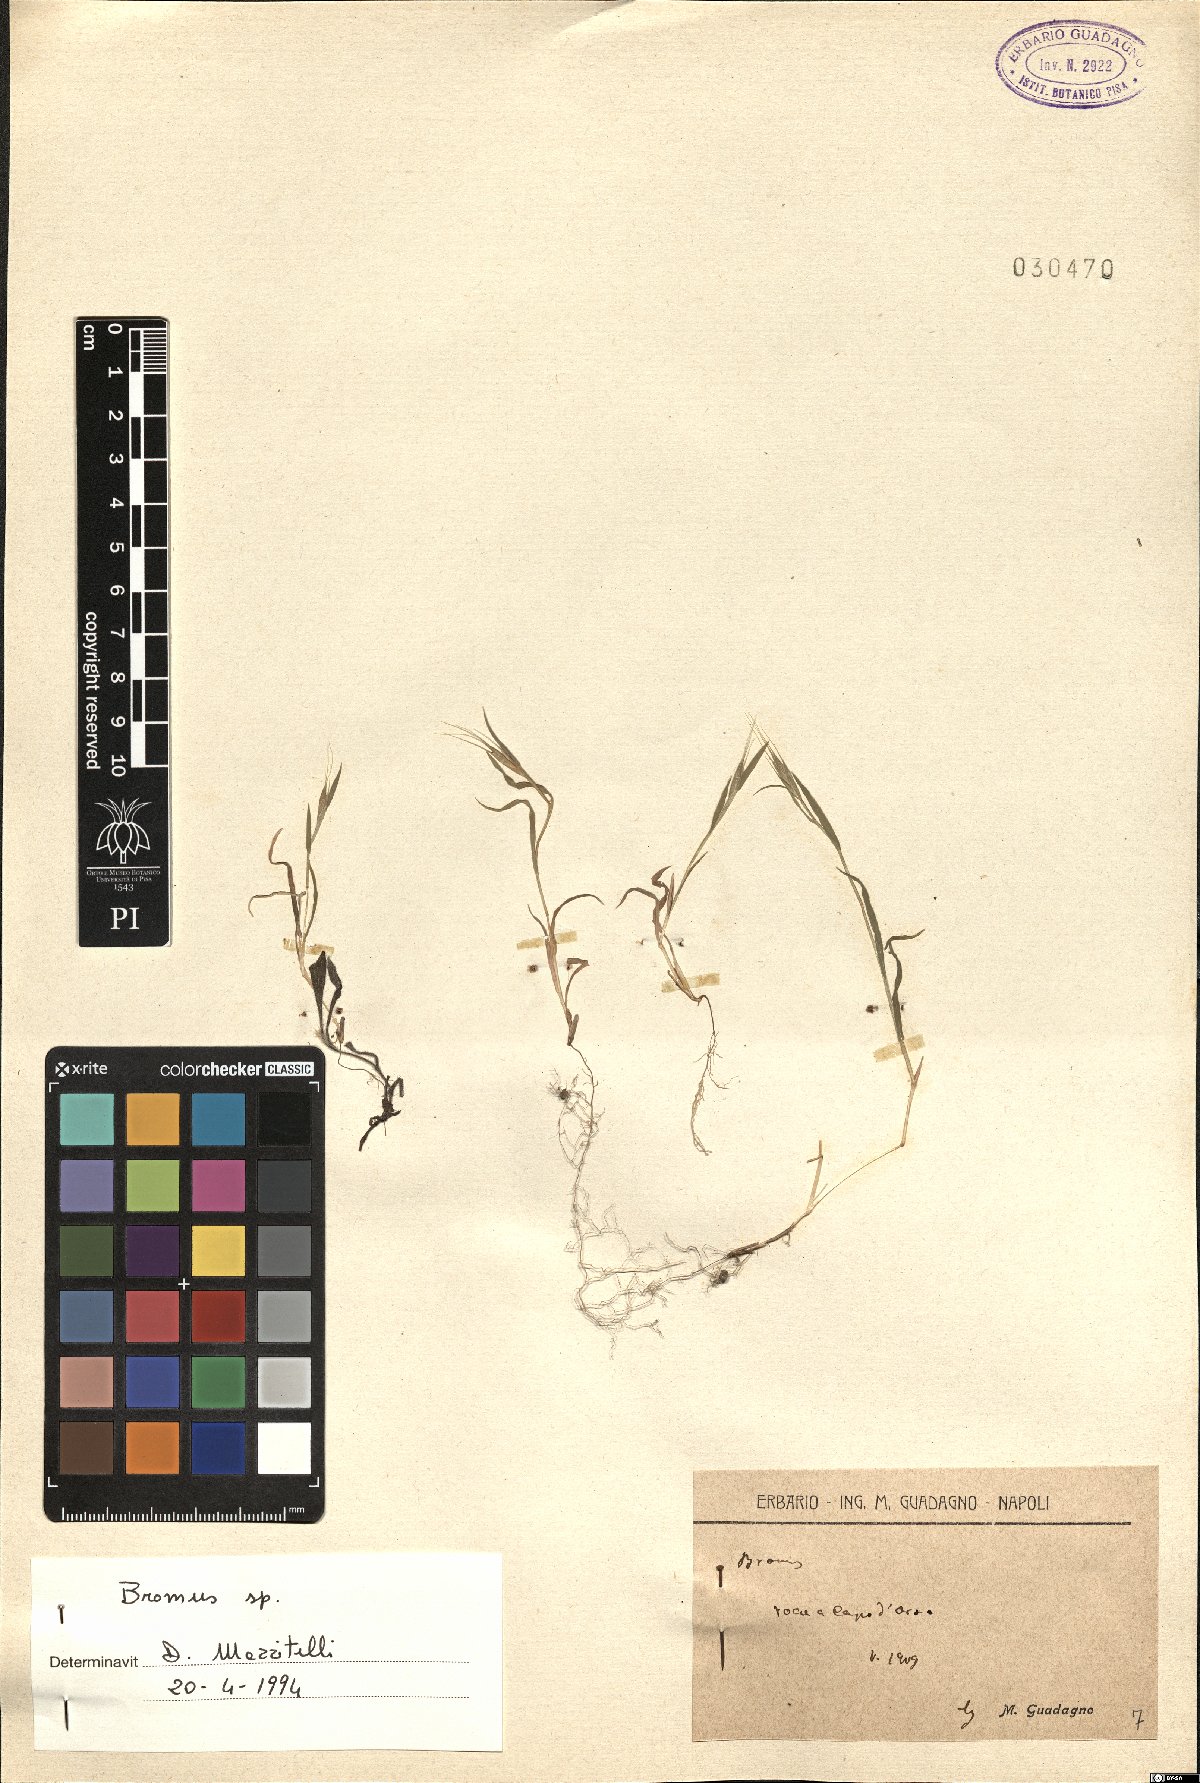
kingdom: Plantae
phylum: Tracheophyta
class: Liliopsida
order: Poales
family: Poaceae
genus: Bromus
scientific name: Bromus
